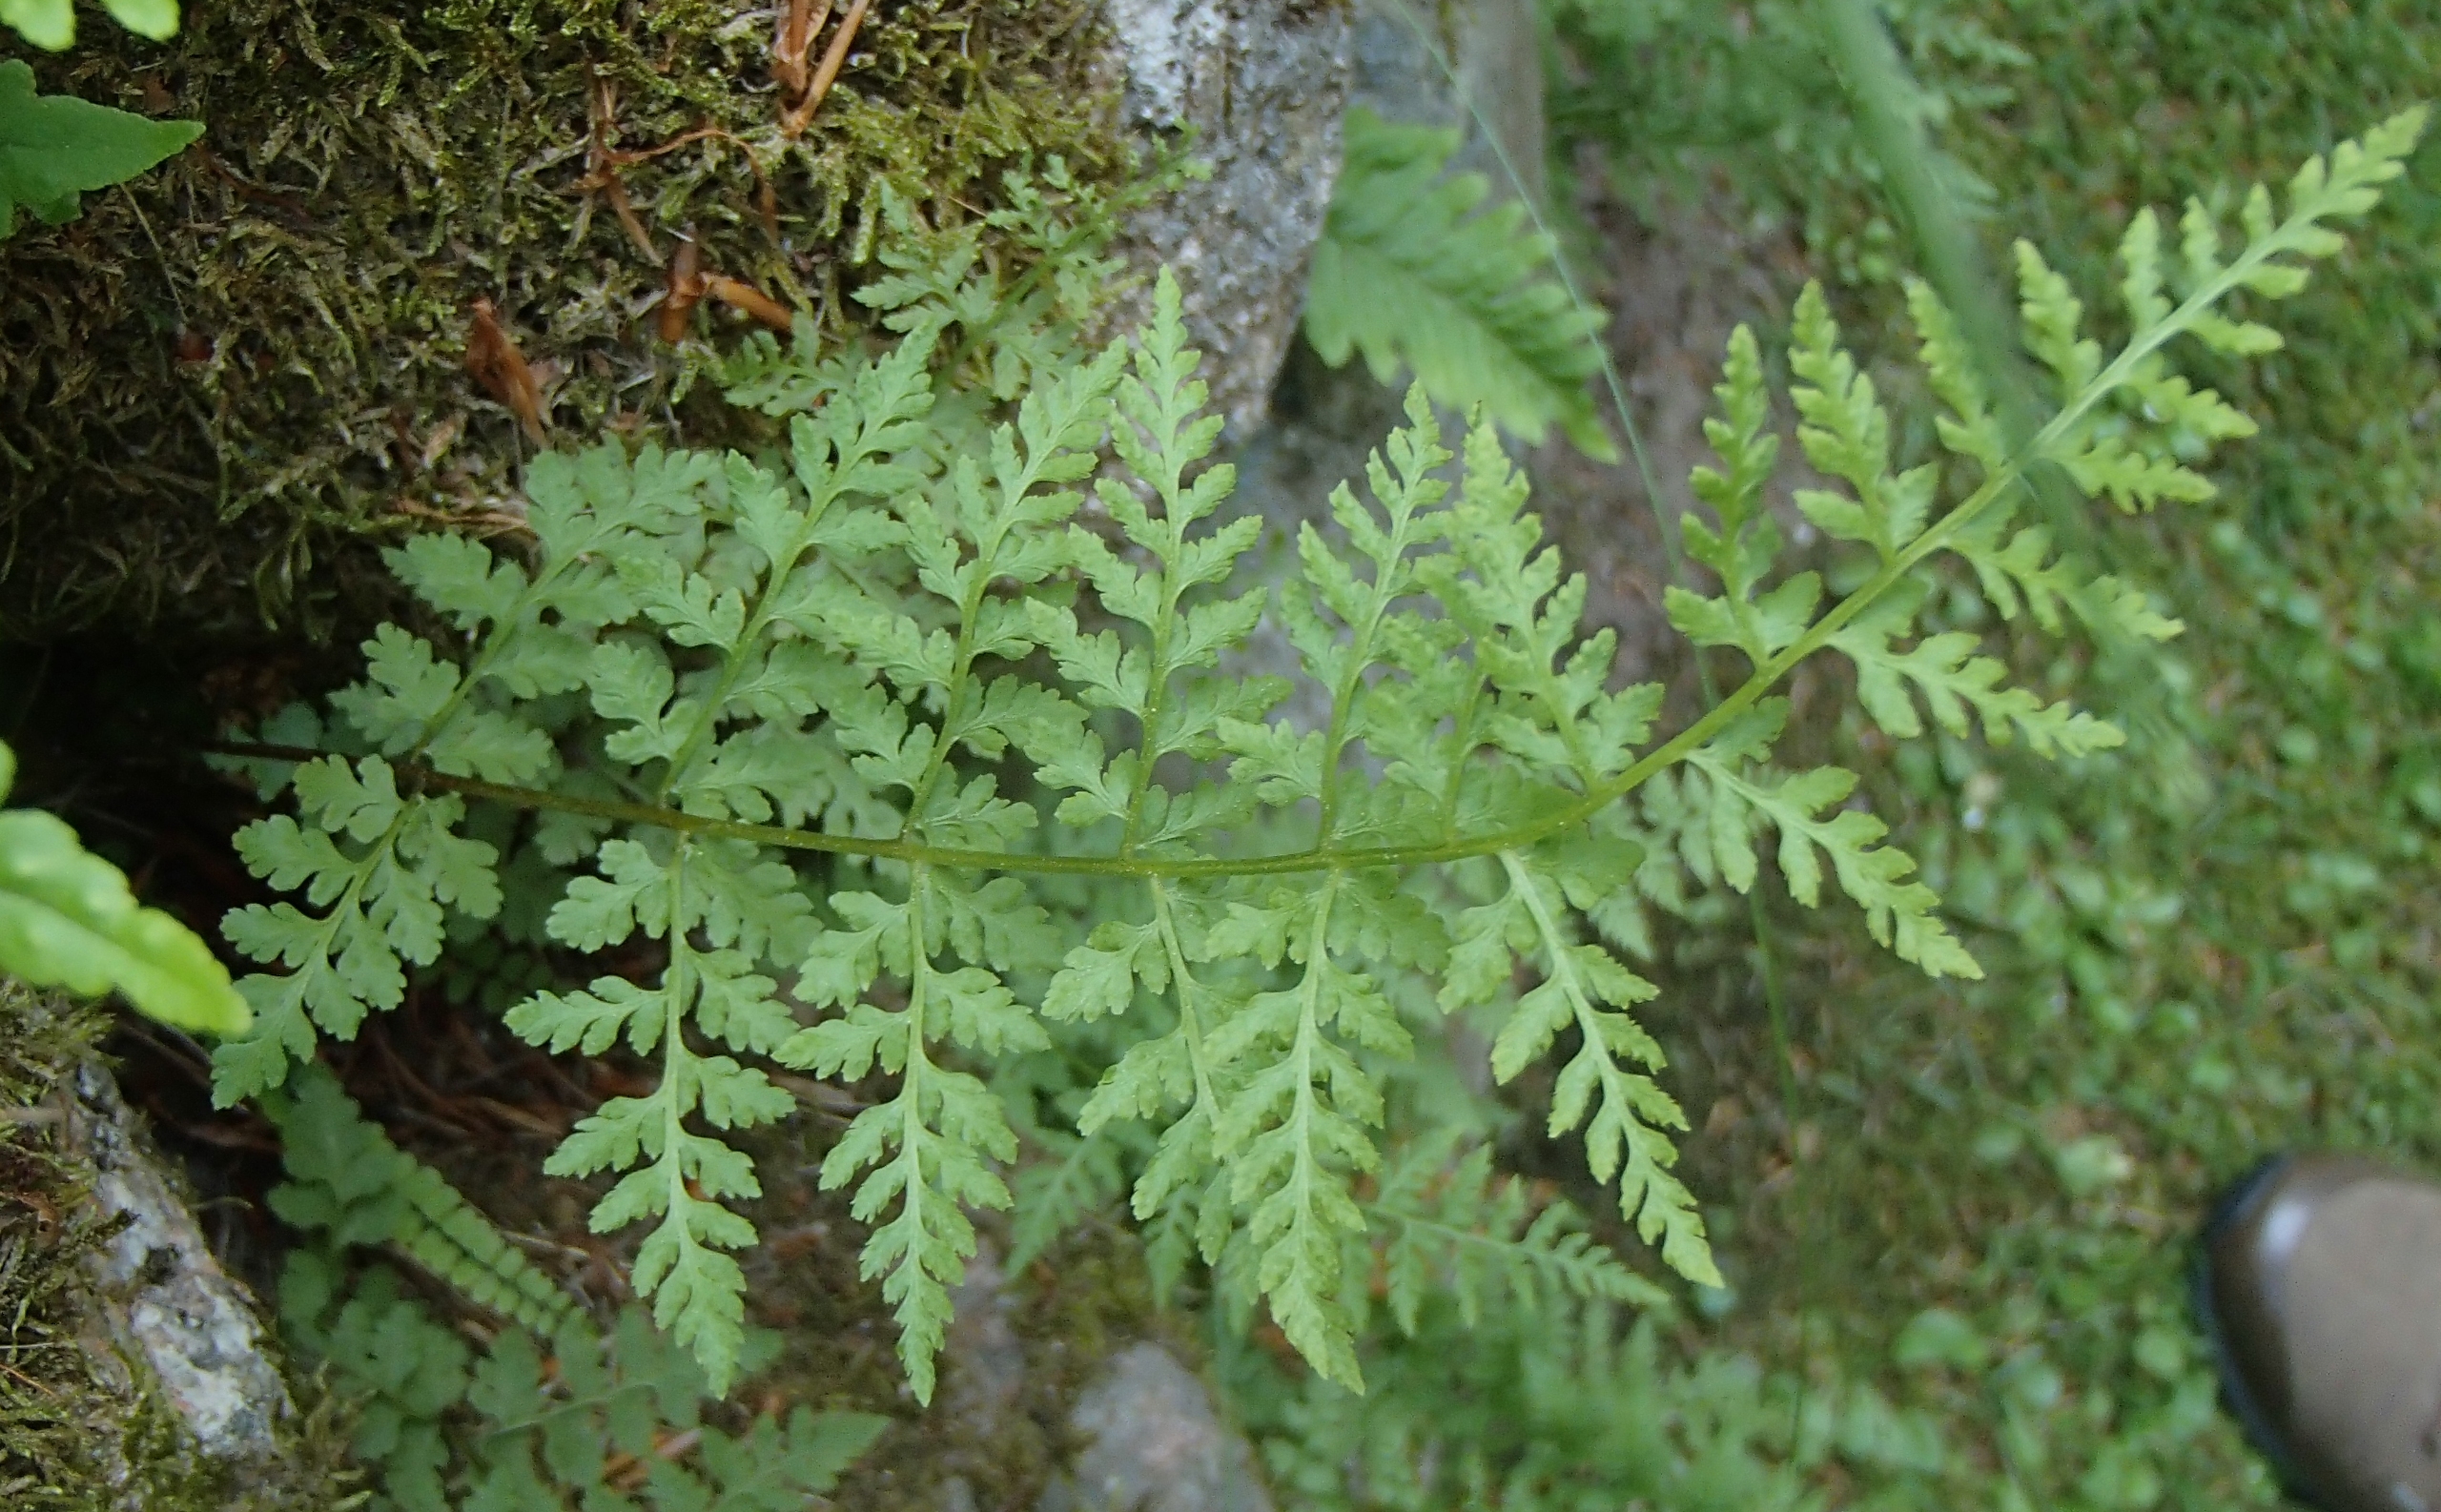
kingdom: Plantae
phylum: Tracheophyta
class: Polypodiopsida
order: Polypodiales
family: Cystopteridaceae
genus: Cystopteris
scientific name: Cystopteris fragilis
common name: Bægerbregne
